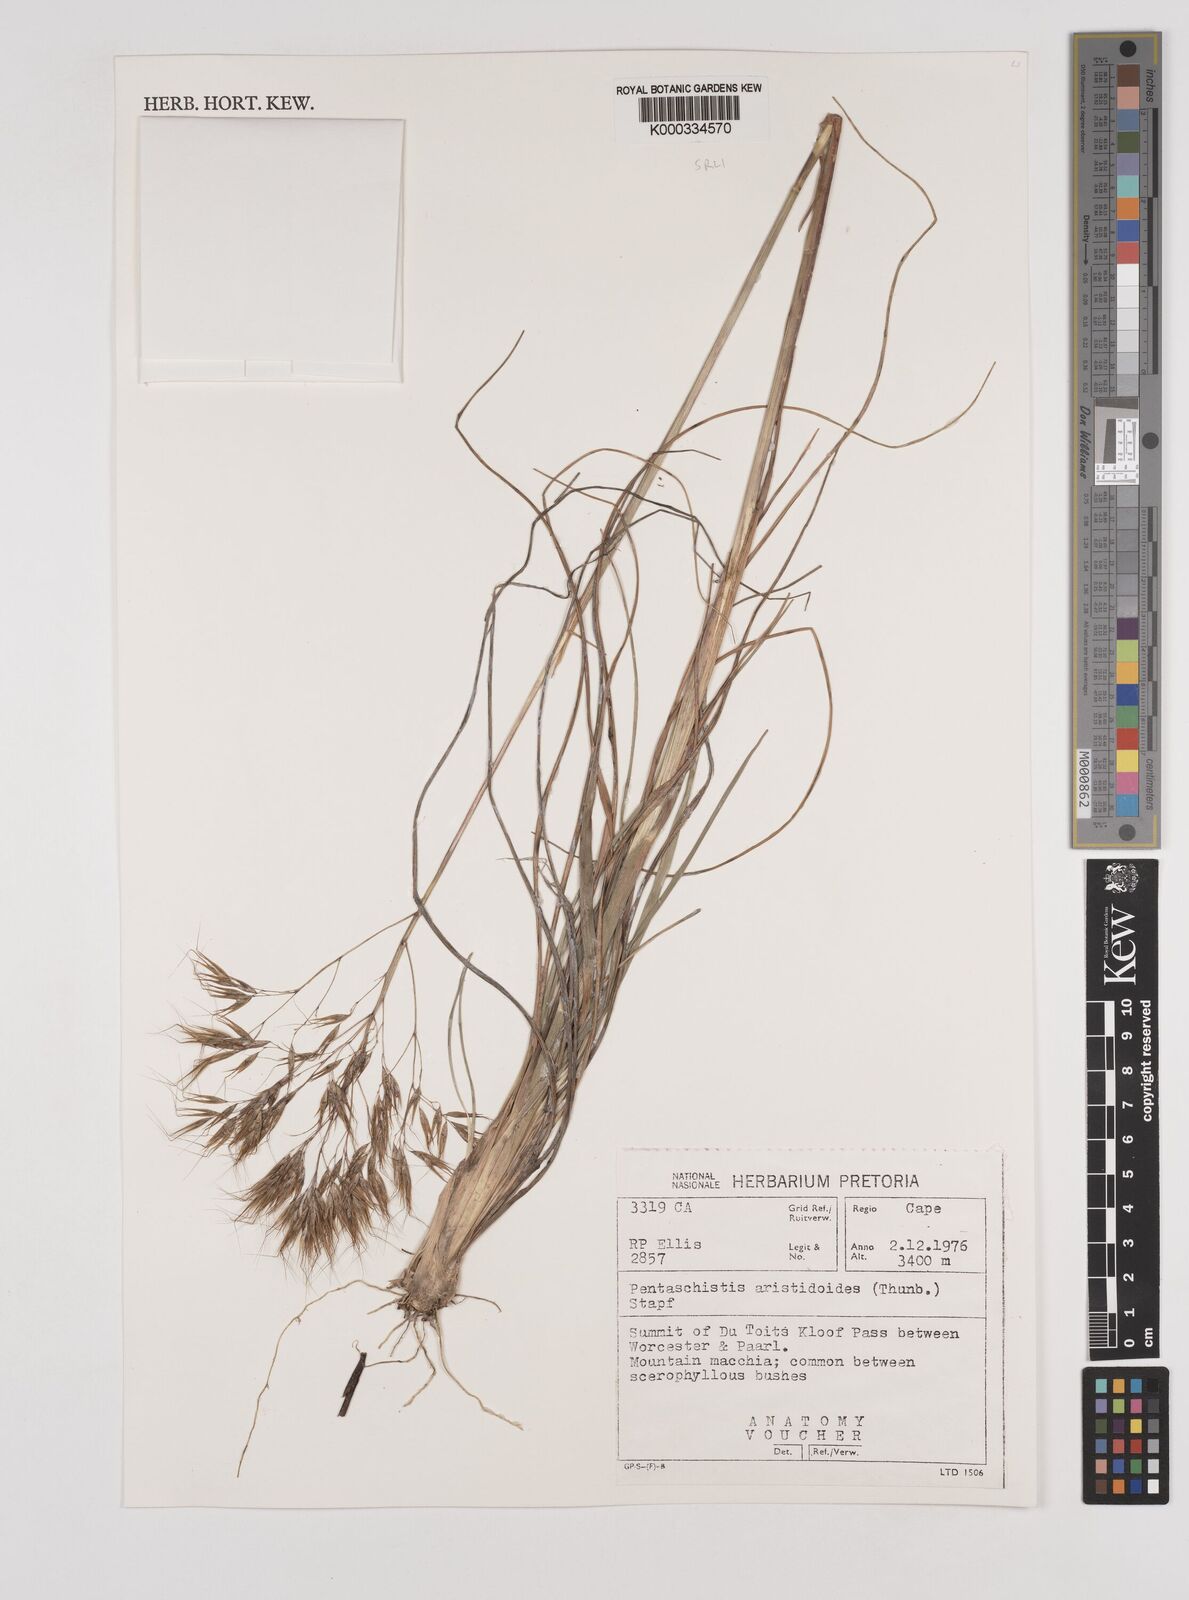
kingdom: Plantae
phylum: Tracheophyta
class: Liliopsida
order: Poales
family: Poaceae
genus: Pentameris
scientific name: Pentameris aristidoides
